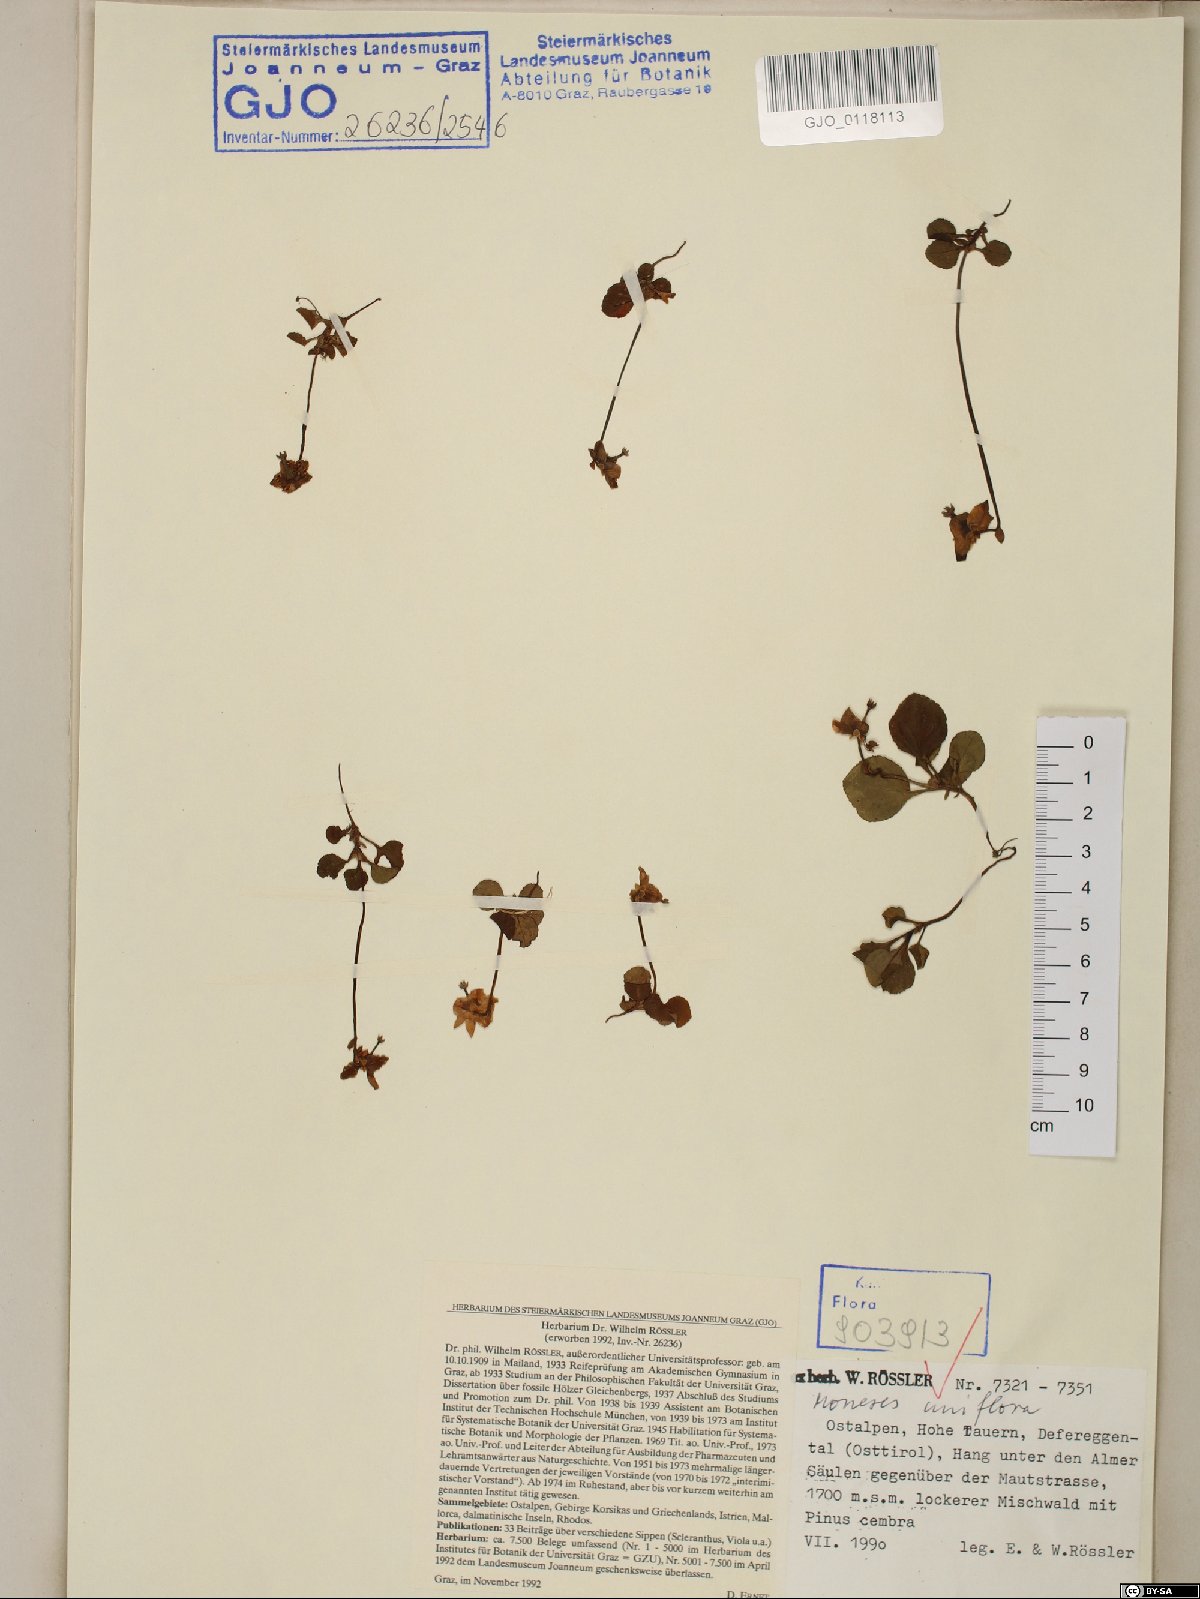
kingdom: Plantae
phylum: Tracheophyta
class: Magnoliopsida
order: Ericales
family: Ericaceae
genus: Moneses
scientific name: Moneses uniflora
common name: One-flowered wintergreen
